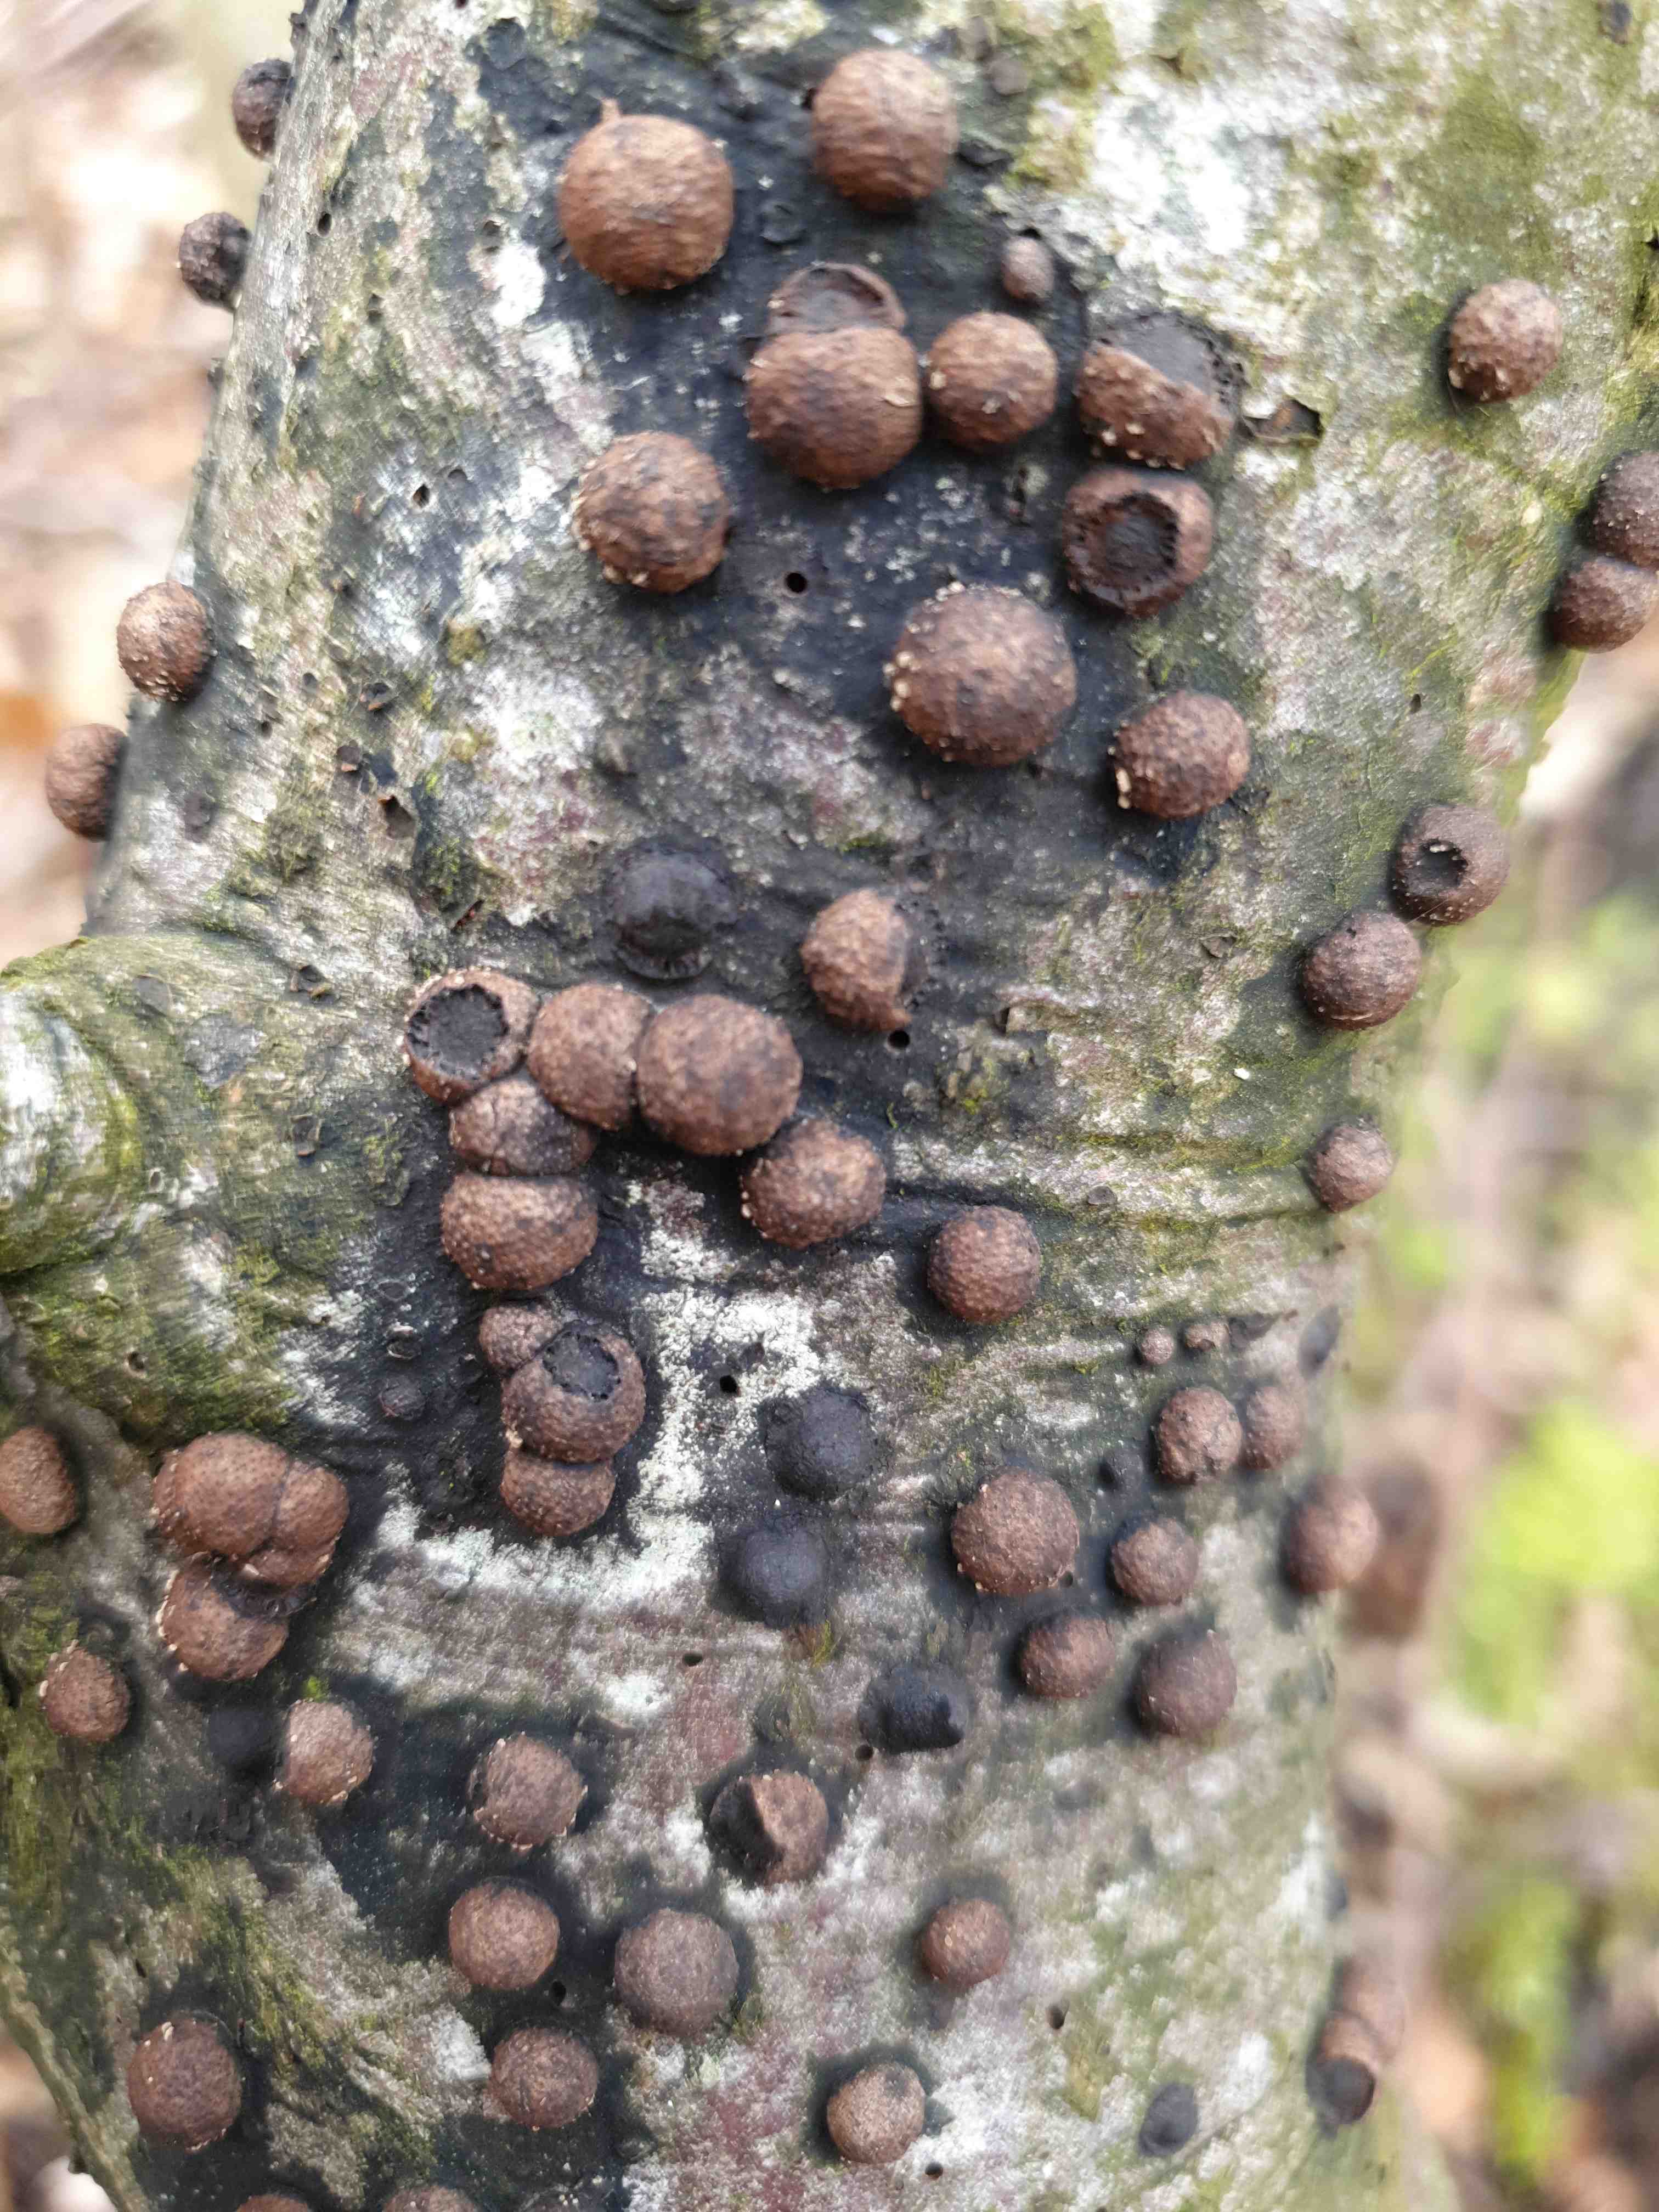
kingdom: Fungi
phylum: Ascomycota
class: Sordariomycetes
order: Xylariales
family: Hypoxylaceae
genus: Hypoxylon
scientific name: Hypoxylon fragiforme
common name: kuljordbær
